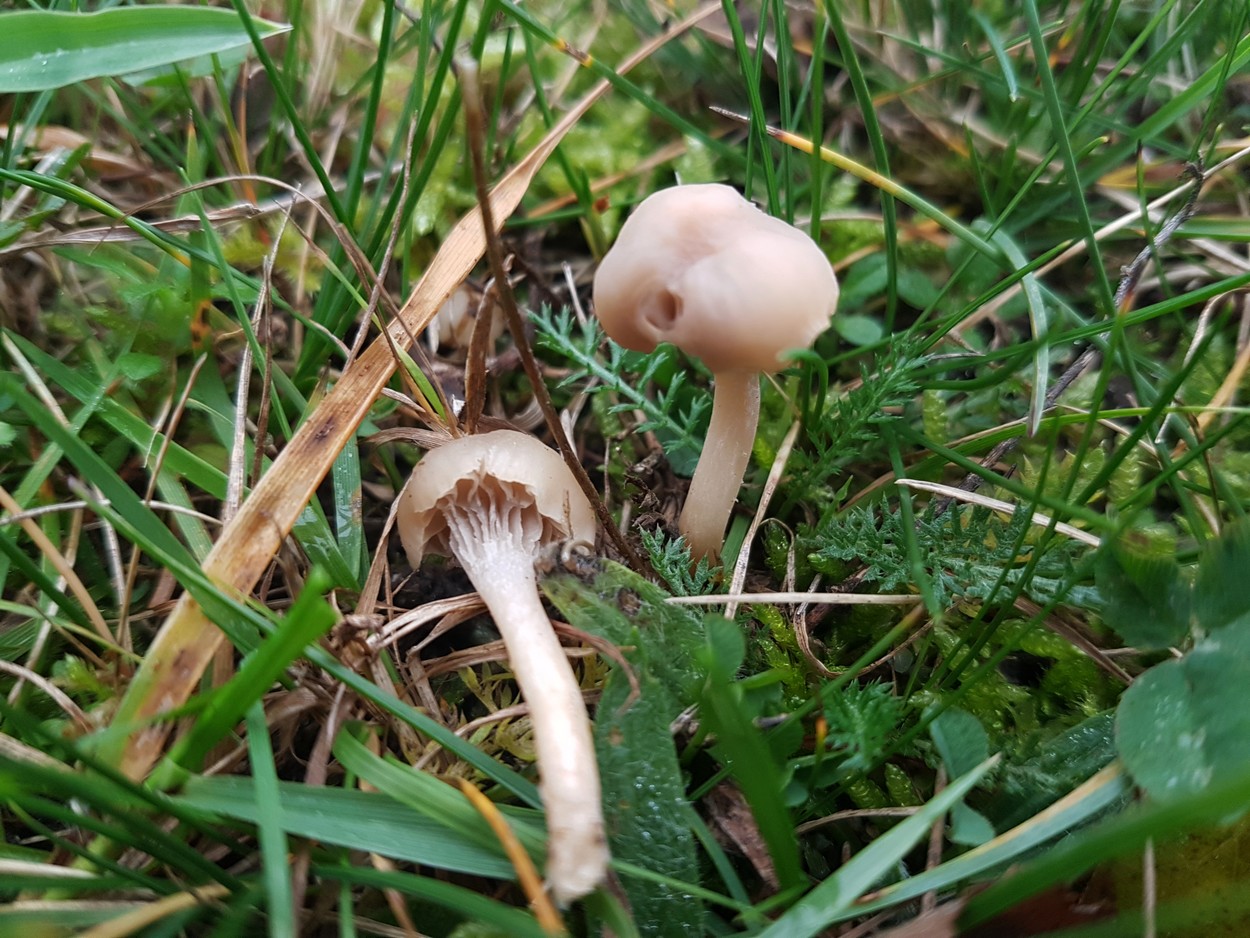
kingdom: Fungi
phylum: Basidiomycota
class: Agaricomycetes
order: Agaricales
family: Hygrophoraceae
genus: Cuphophyllus
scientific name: Cuphophyllus
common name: vokshat
